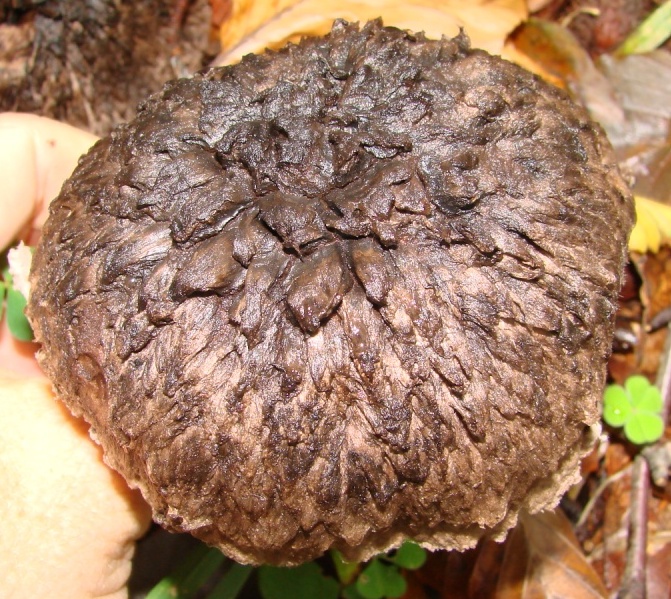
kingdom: Fungi
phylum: Basidiomycota
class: Agaricomycetes
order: Boletales
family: Boletaceae
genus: Strobilomyces
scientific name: Strobilomyces strobilaceus
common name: koglerørhat
